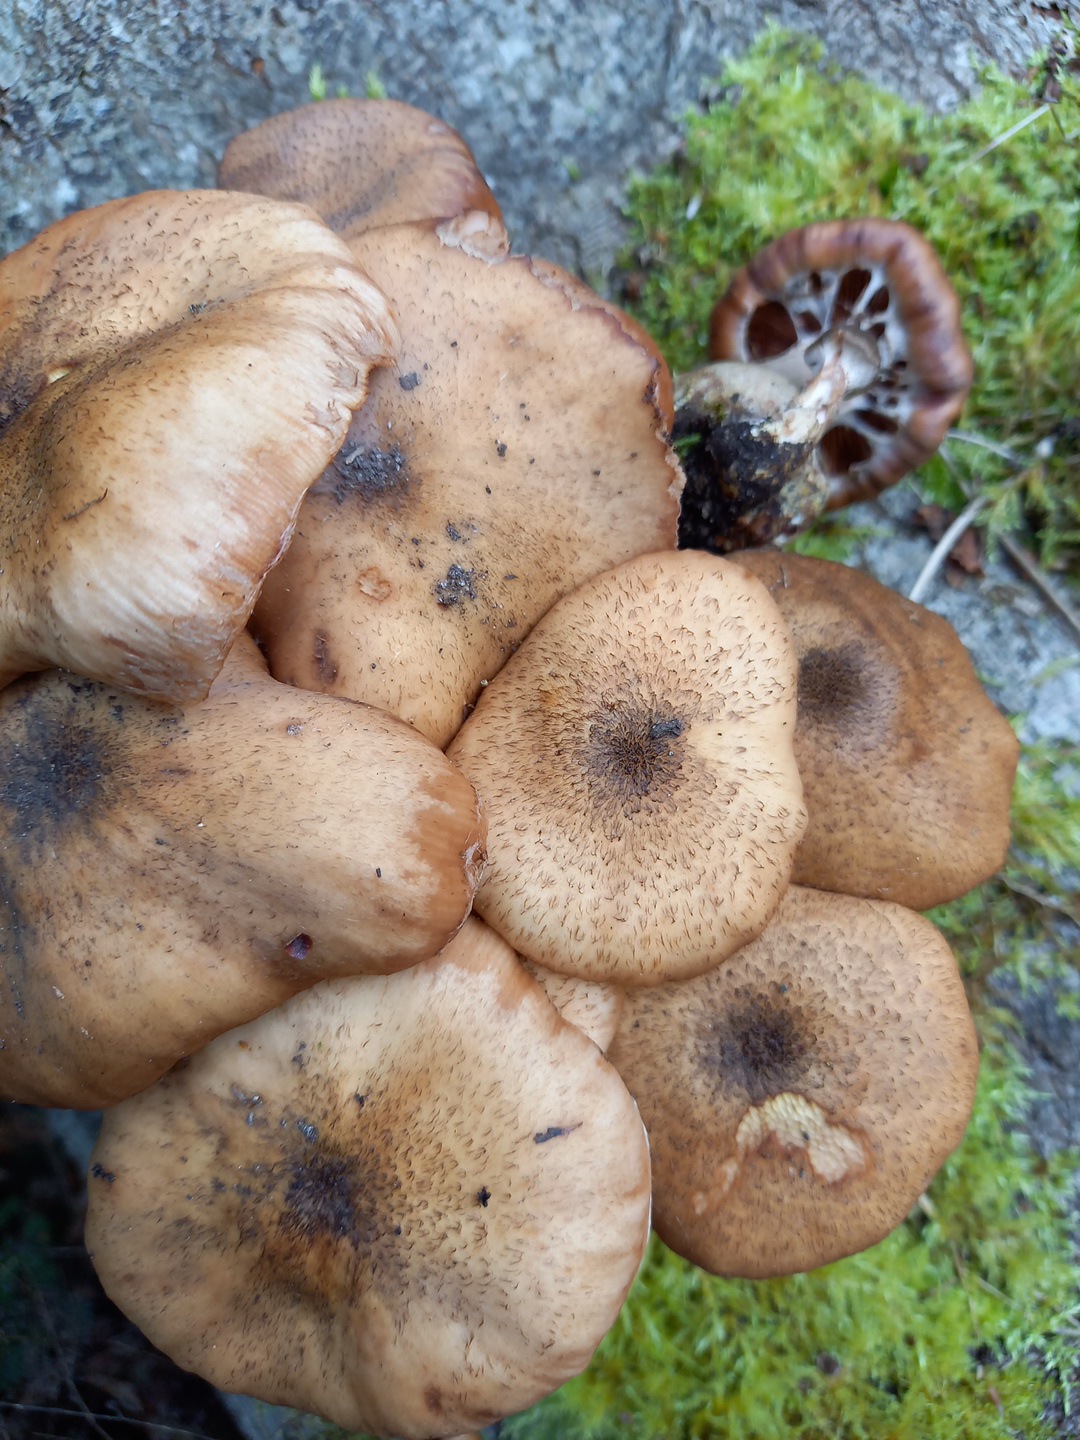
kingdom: Fungi
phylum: Basidiomycota
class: Agaricomycetes
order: Agaricales
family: Physalacriaceae
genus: Armillaria
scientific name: Armillaria lutea
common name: køllestokket honningsvamp
